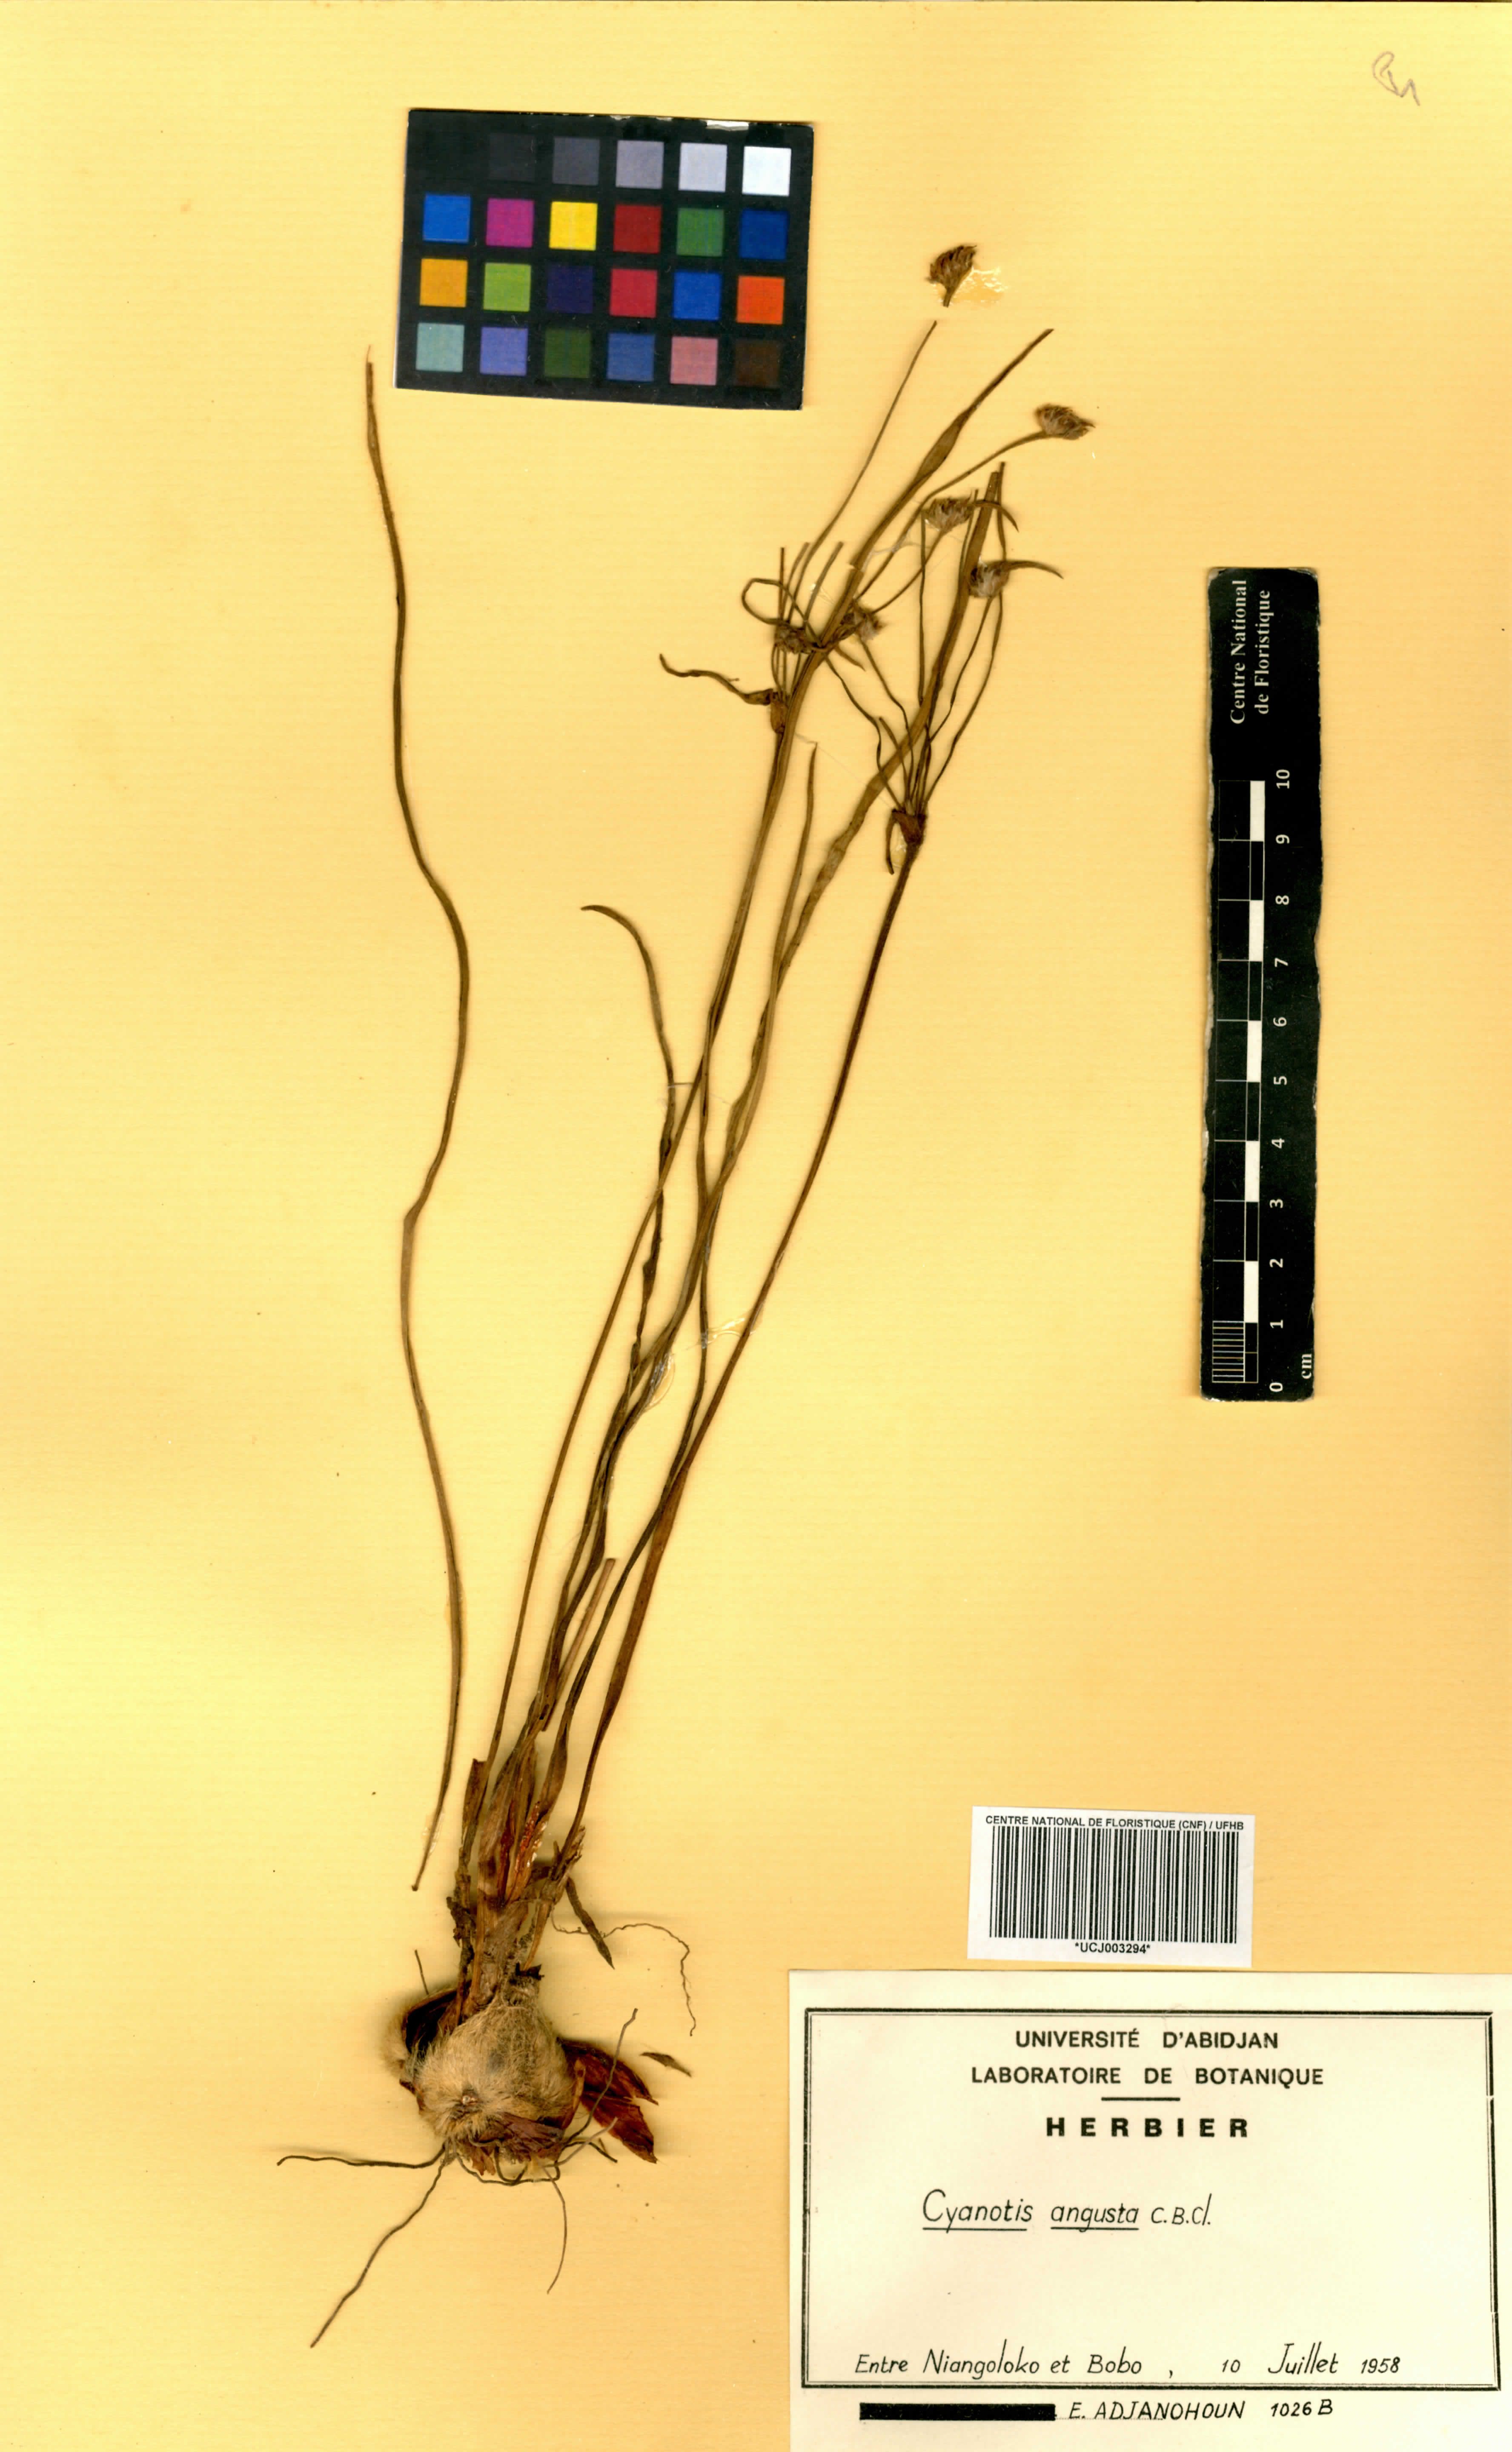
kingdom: Plantae
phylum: Tracheophyta
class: Liliopsida
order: Commelinales
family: Commelinaceae
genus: Cyanotis
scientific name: Cyanotis angusta
